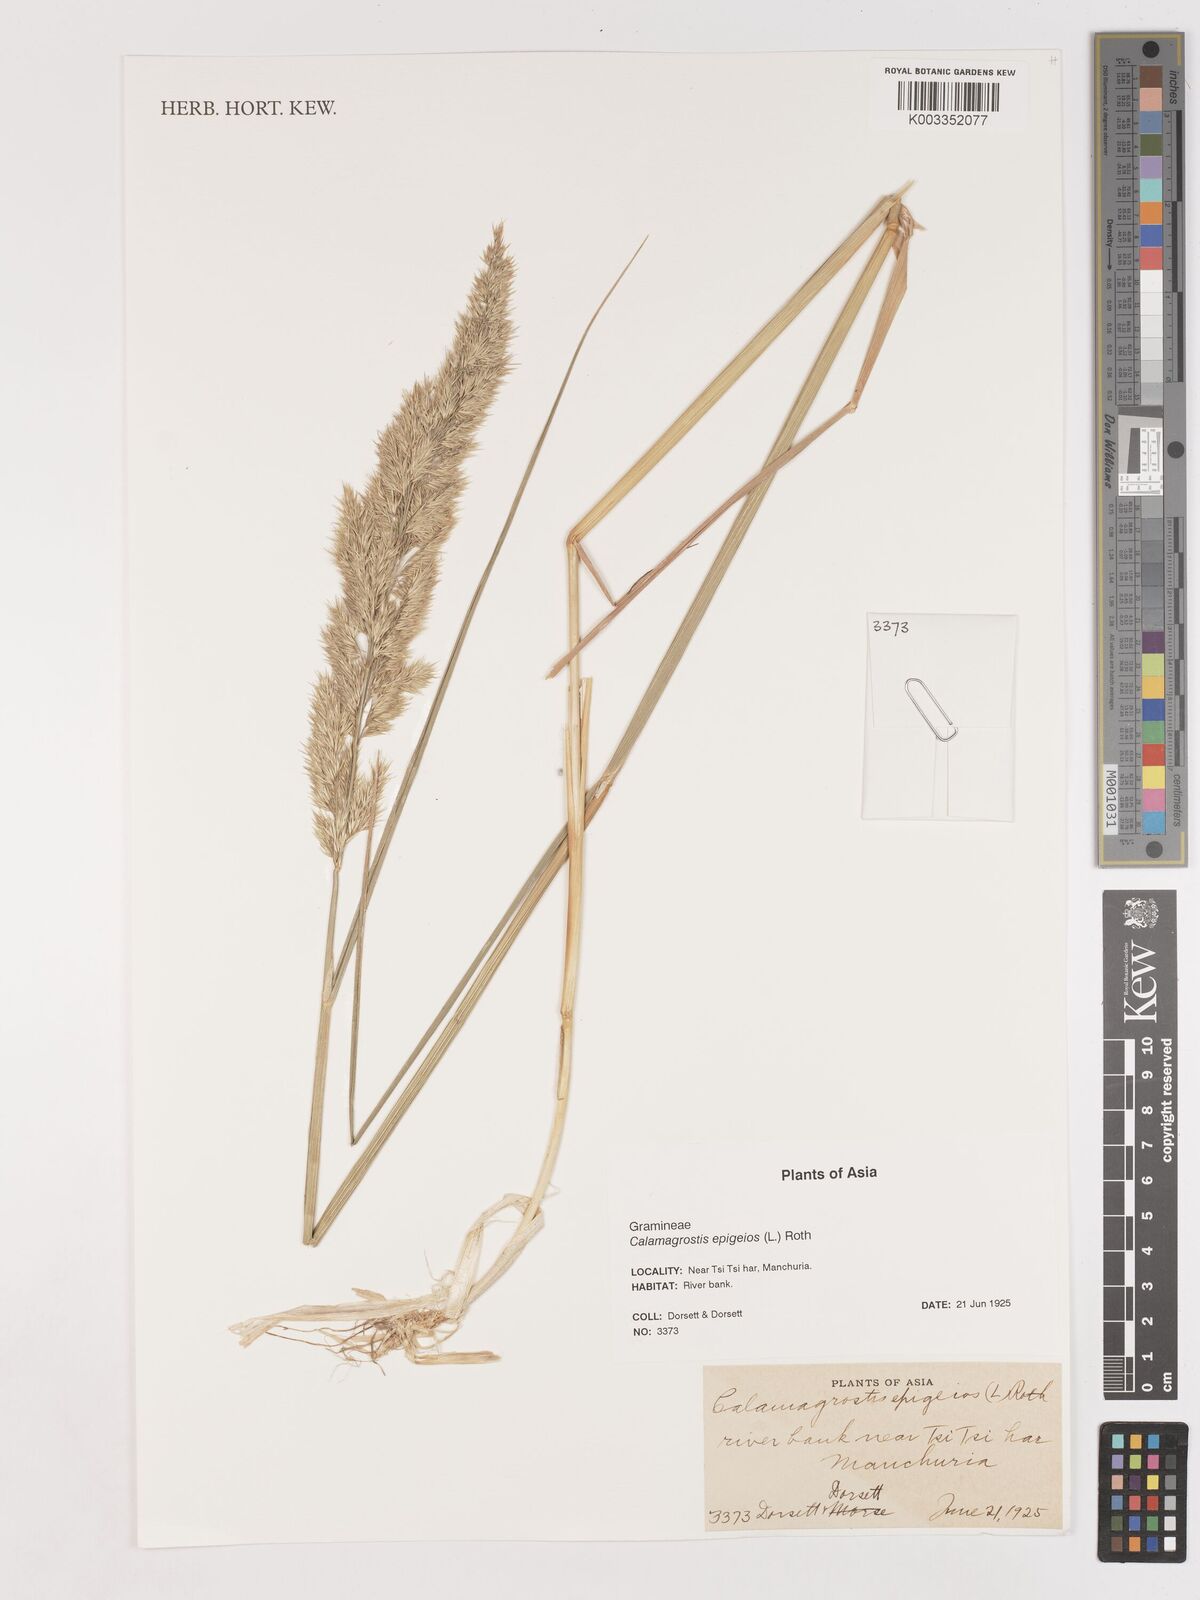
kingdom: Plantae
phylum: Tracheophyta
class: Liliopsida
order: Poales
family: Poaceae
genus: Calamagrostis
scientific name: Calamagrostis epigejos
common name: Wood small-reed
